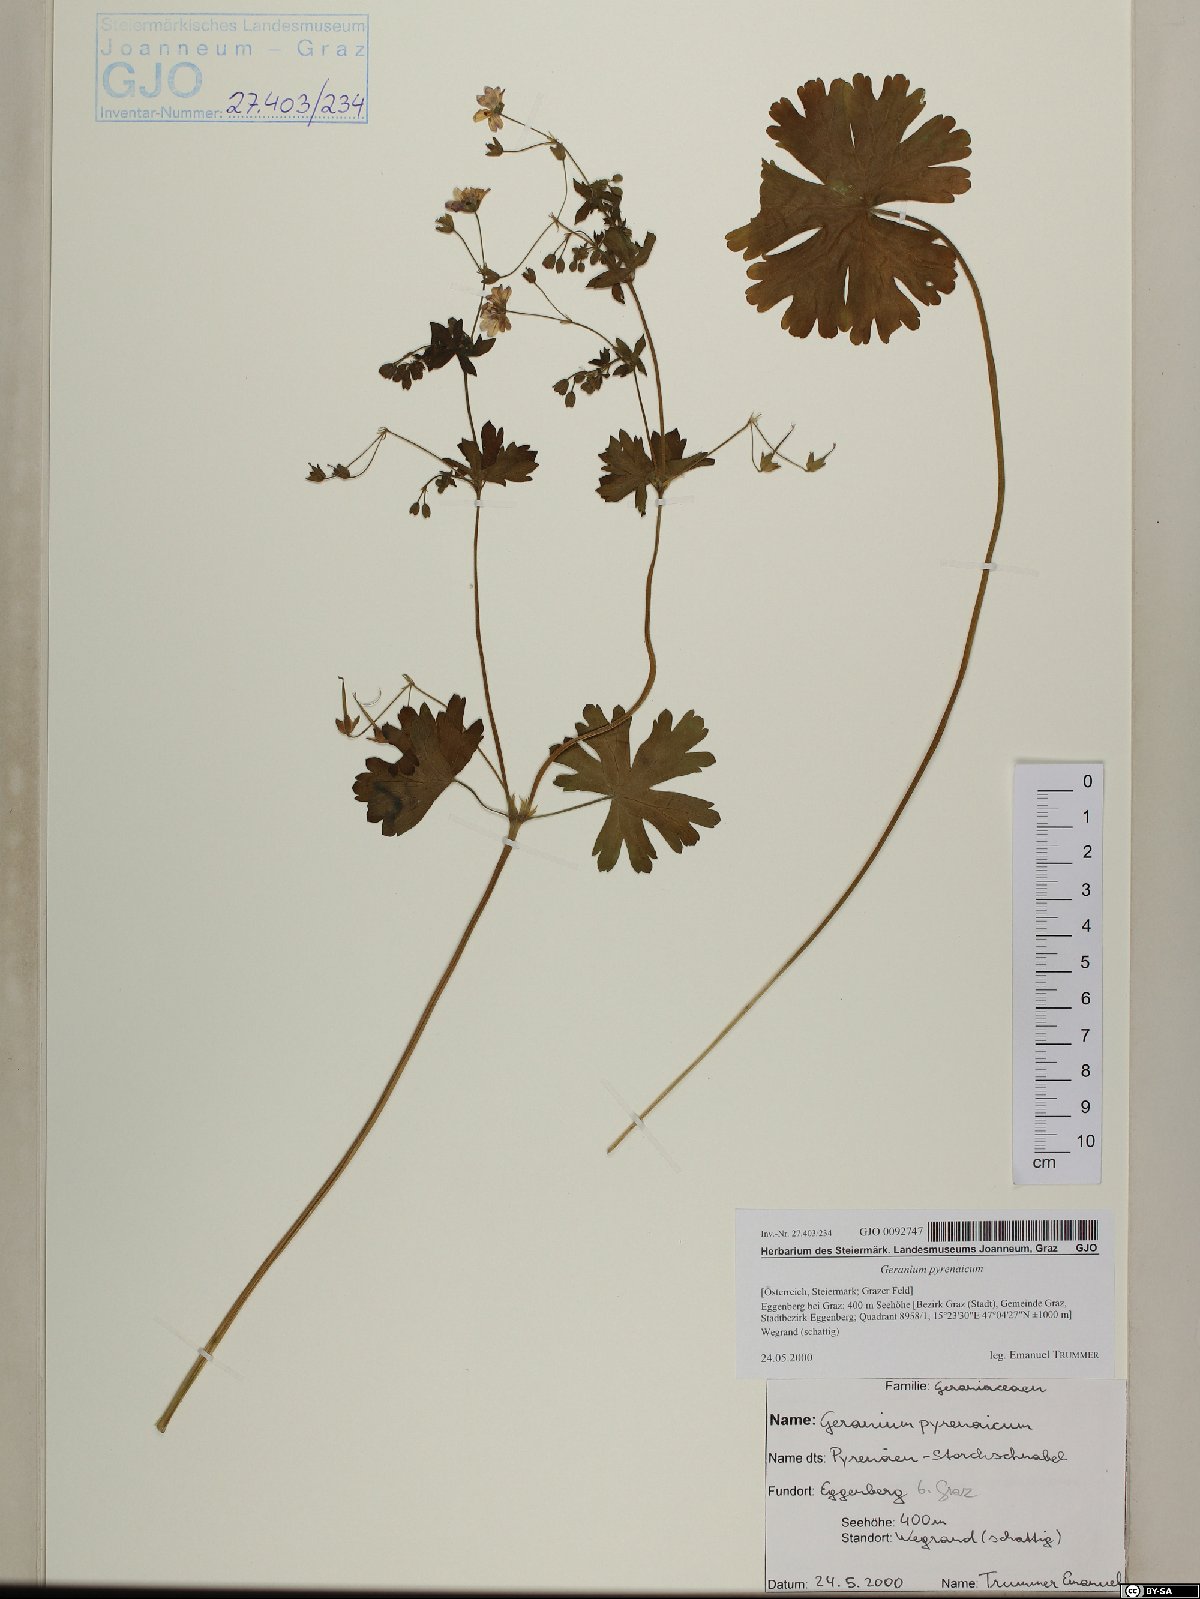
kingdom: Plantae
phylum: Tracheophyta
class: Magnoliopsida
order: Geraniales
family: Geraniaceae
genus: Geranium
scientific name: Geranium pyrenaicum
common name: Hedgerow crane's-bill
